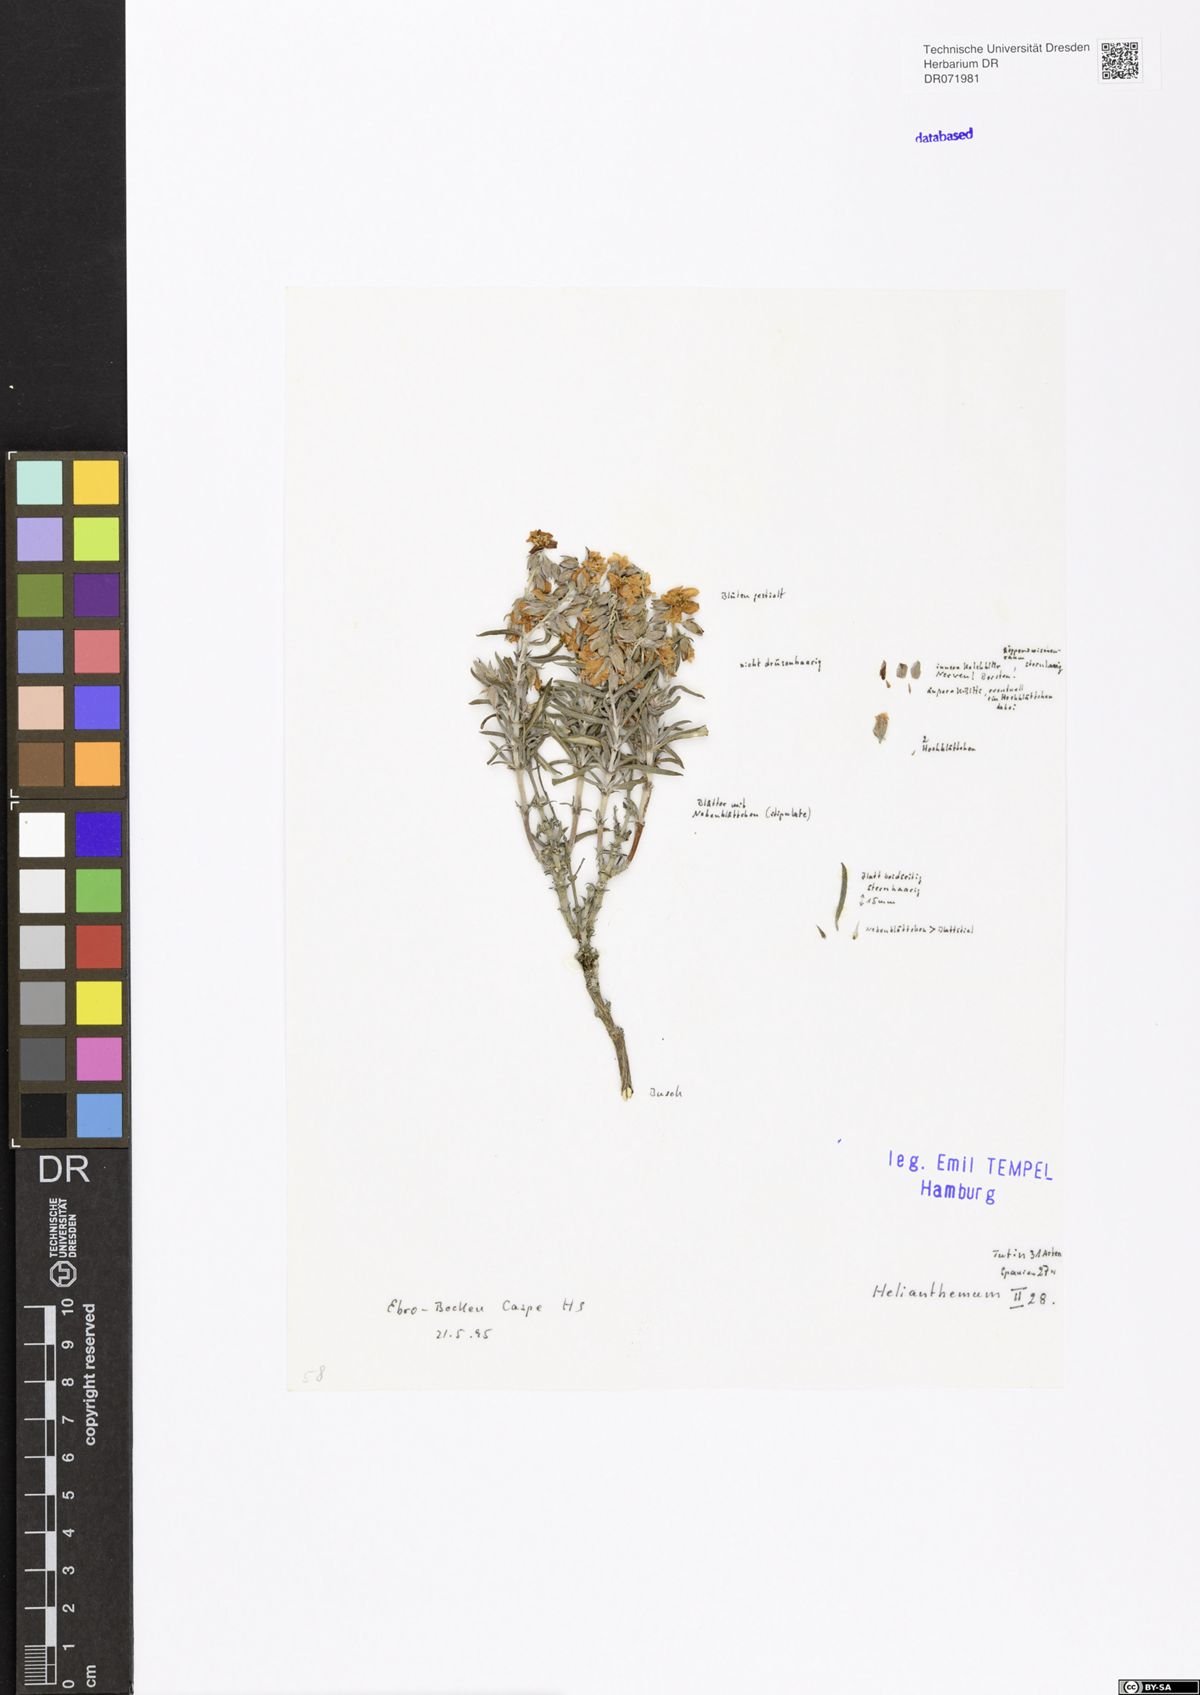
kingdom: Plantae
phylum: Tracheophyta
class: Magnoliopsida
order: Malvales
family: Cistaceae
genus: Helianthemum
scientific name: Helianthemum
